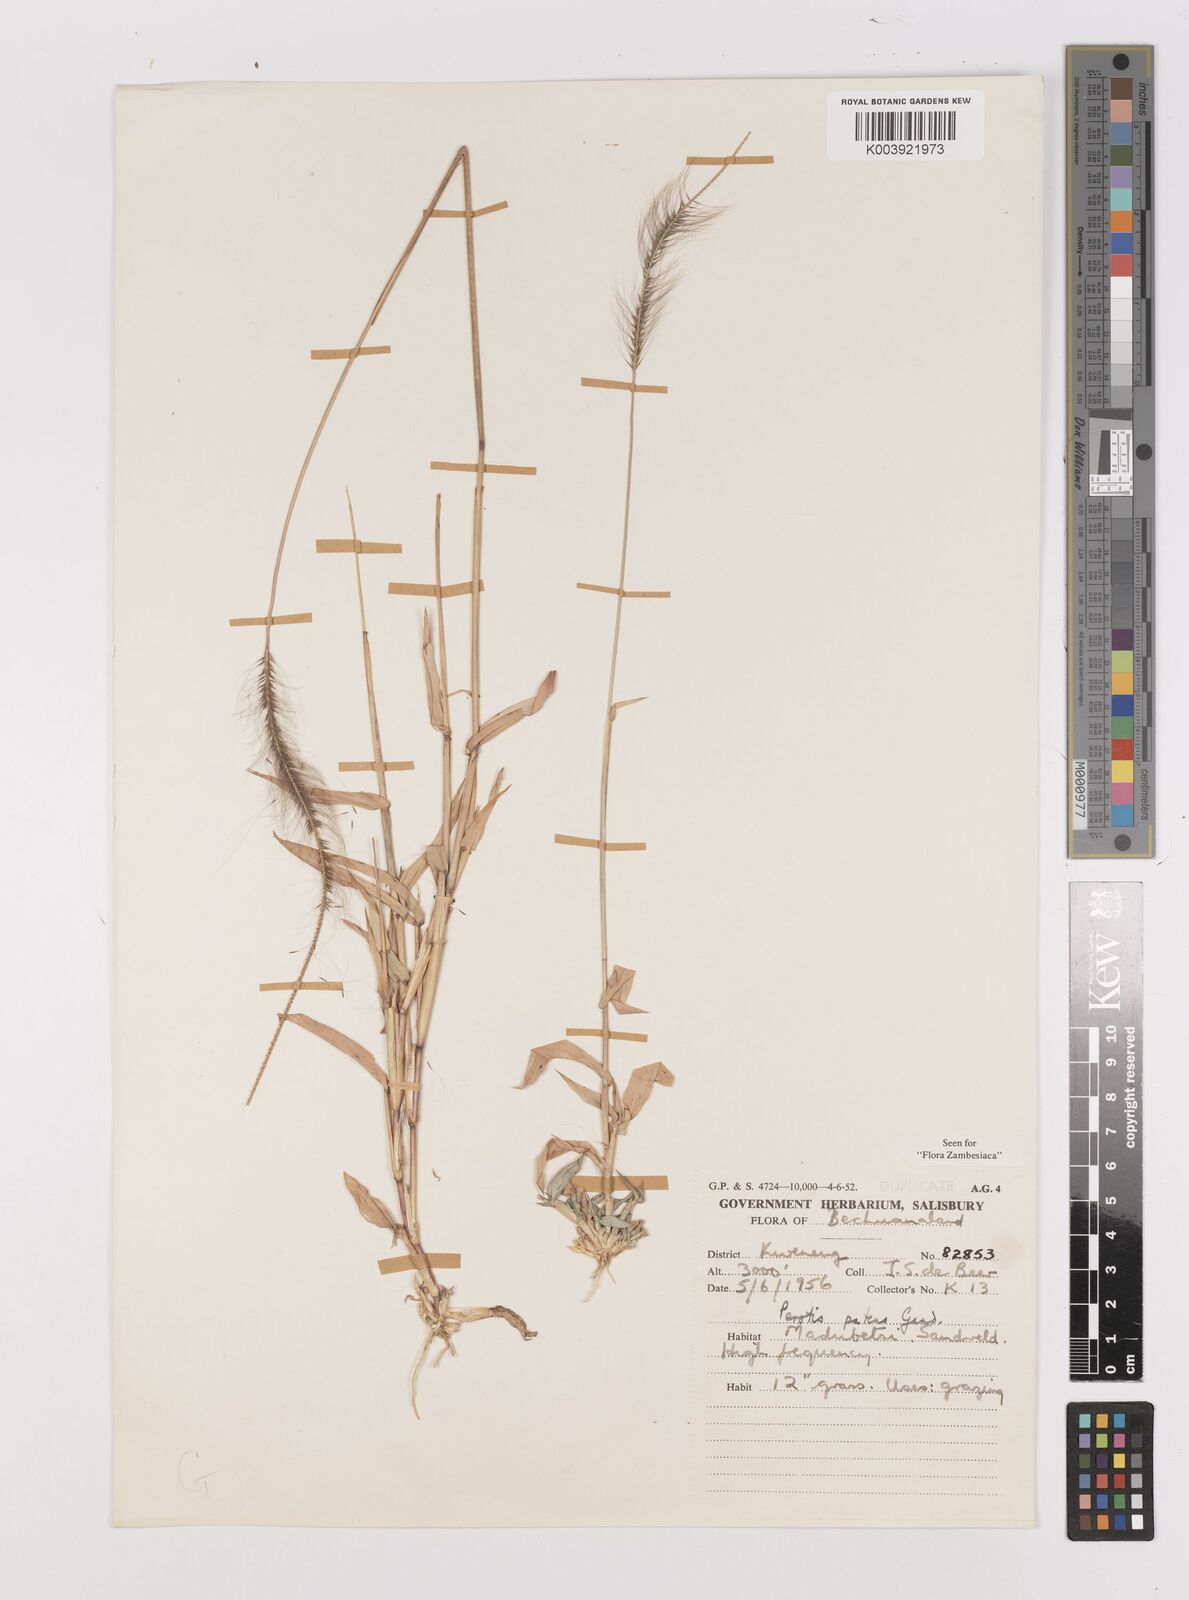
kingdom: Plantae
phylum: Tracheophyta
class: Liliopsida
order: Poales
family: Poaceae
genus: Perotis
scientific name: Perotis patens
